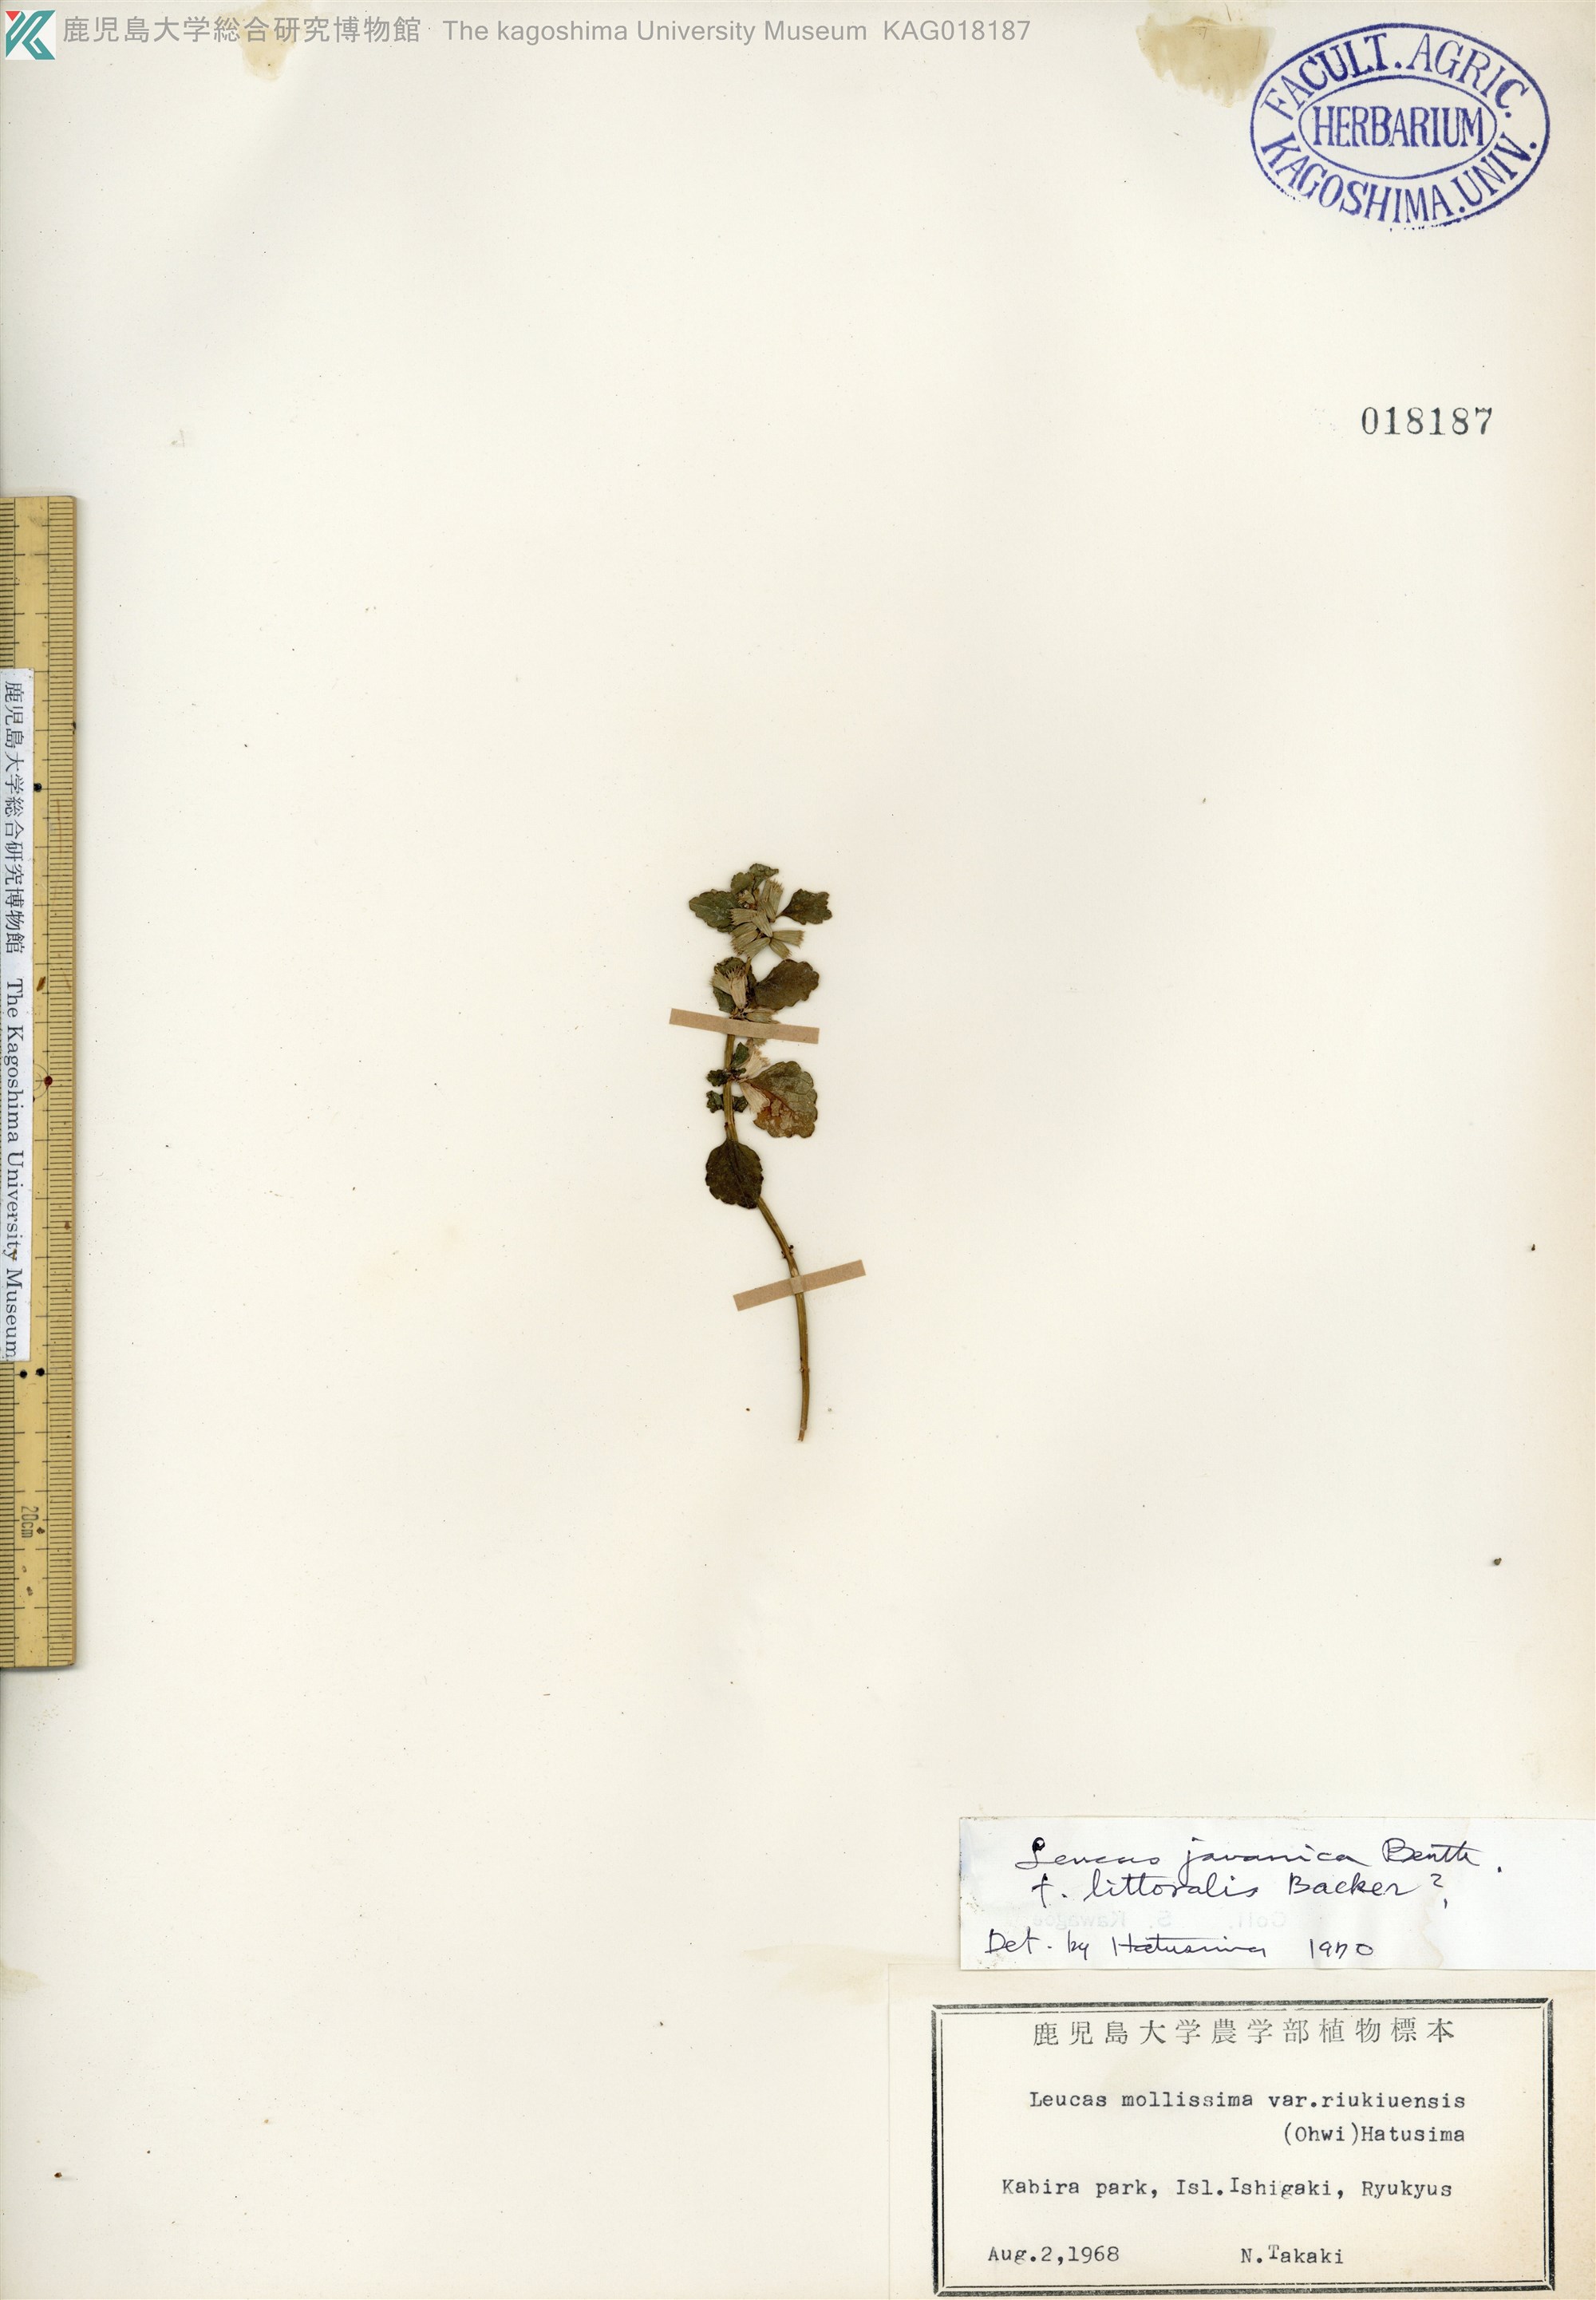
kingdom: Plantae
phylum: Tracheophyta
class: Magnoliopsida
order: Lamiales
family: Lamiaceae
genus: Leucas
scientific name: Leucas chinensis
